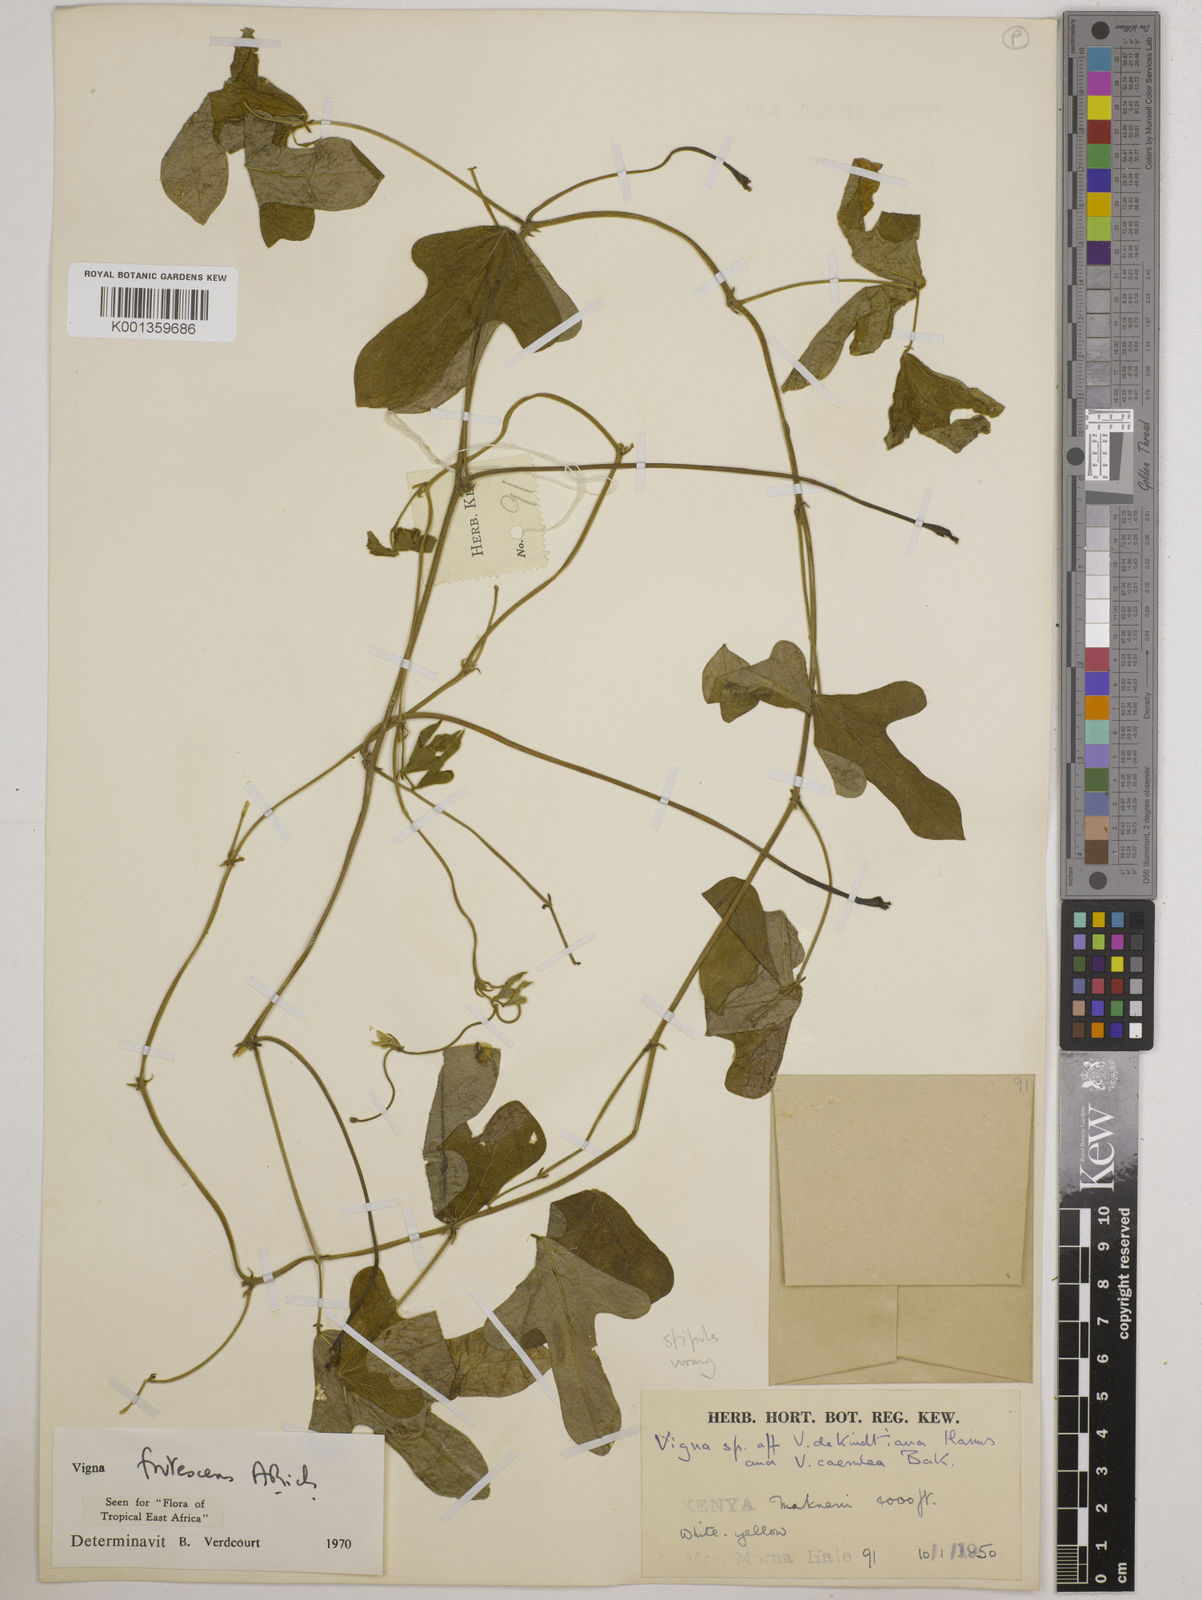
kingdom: Plantae
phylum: Tracheophyta
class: Magnoliopsida
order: Fabales
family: Fabaceae
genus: Vigna
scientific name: Vigna frutescens
